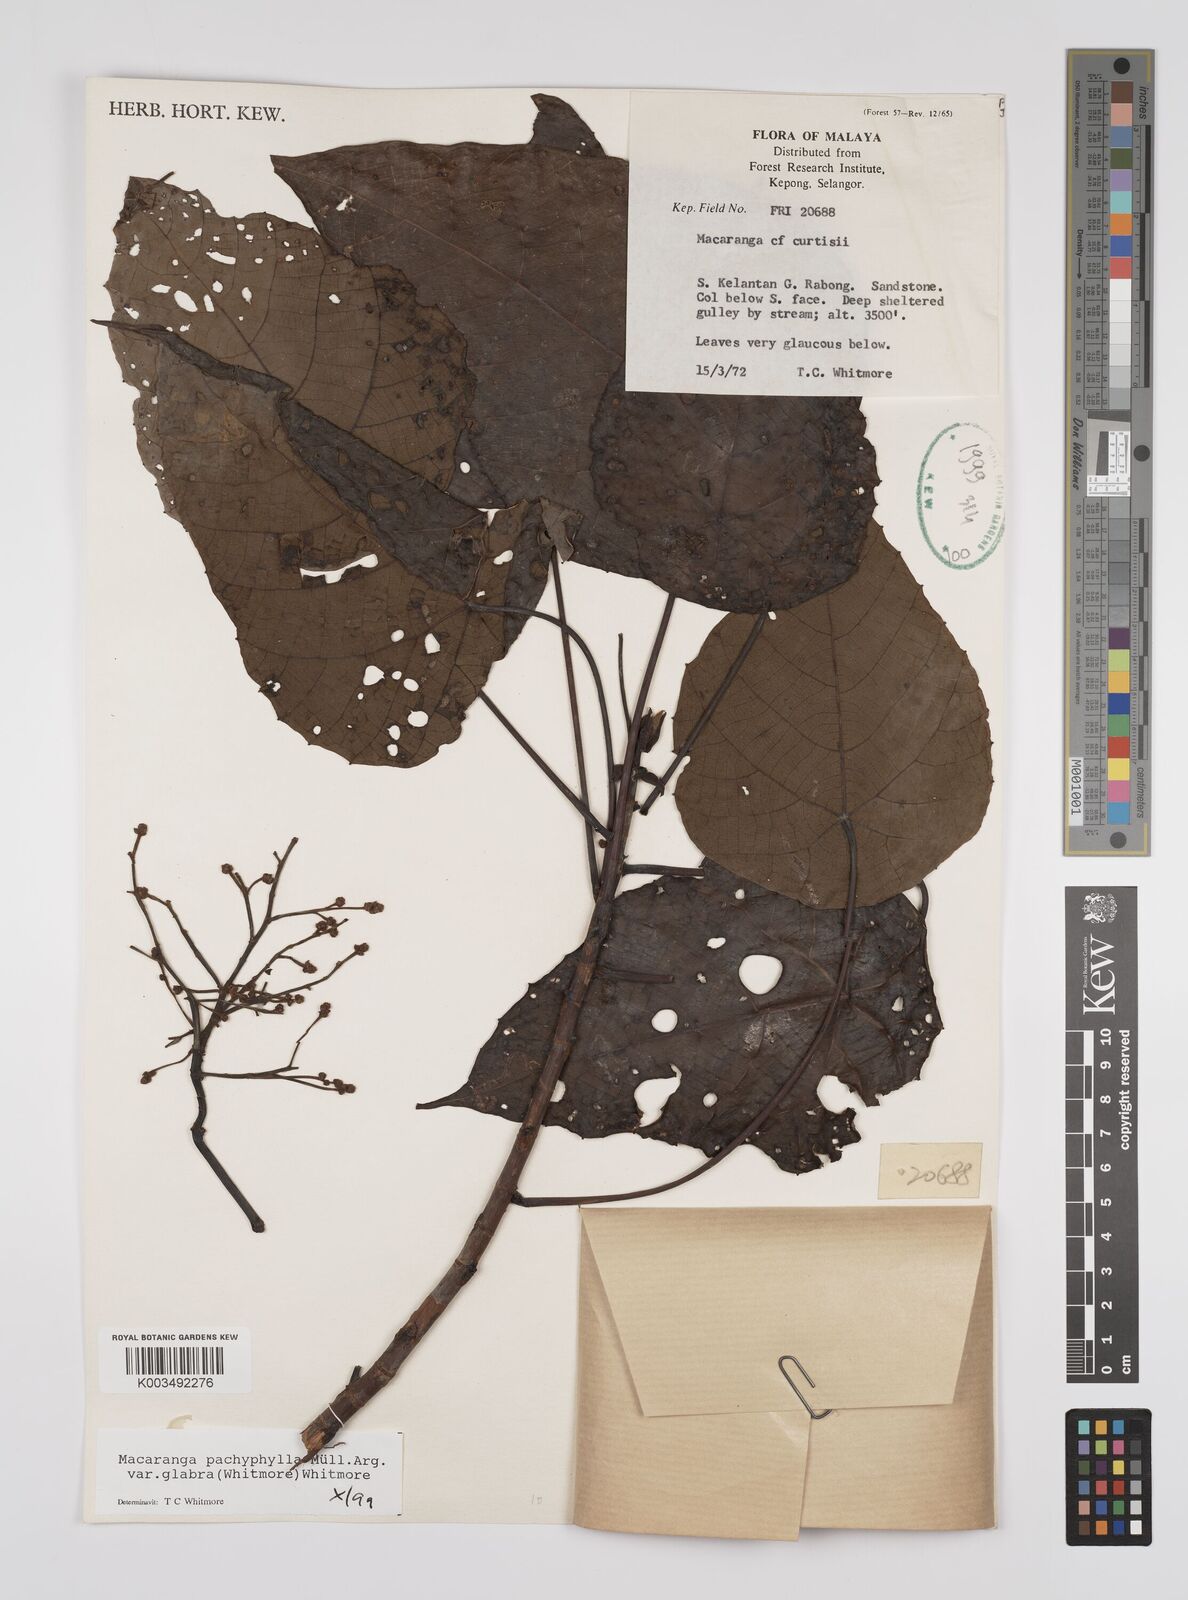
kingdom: Plantae
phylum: Tracheophyta
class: Magnoliopsida
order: Malpighiales
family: Euphorbiaceae
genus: Macaranga
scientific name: Macaranga pachyphylla
